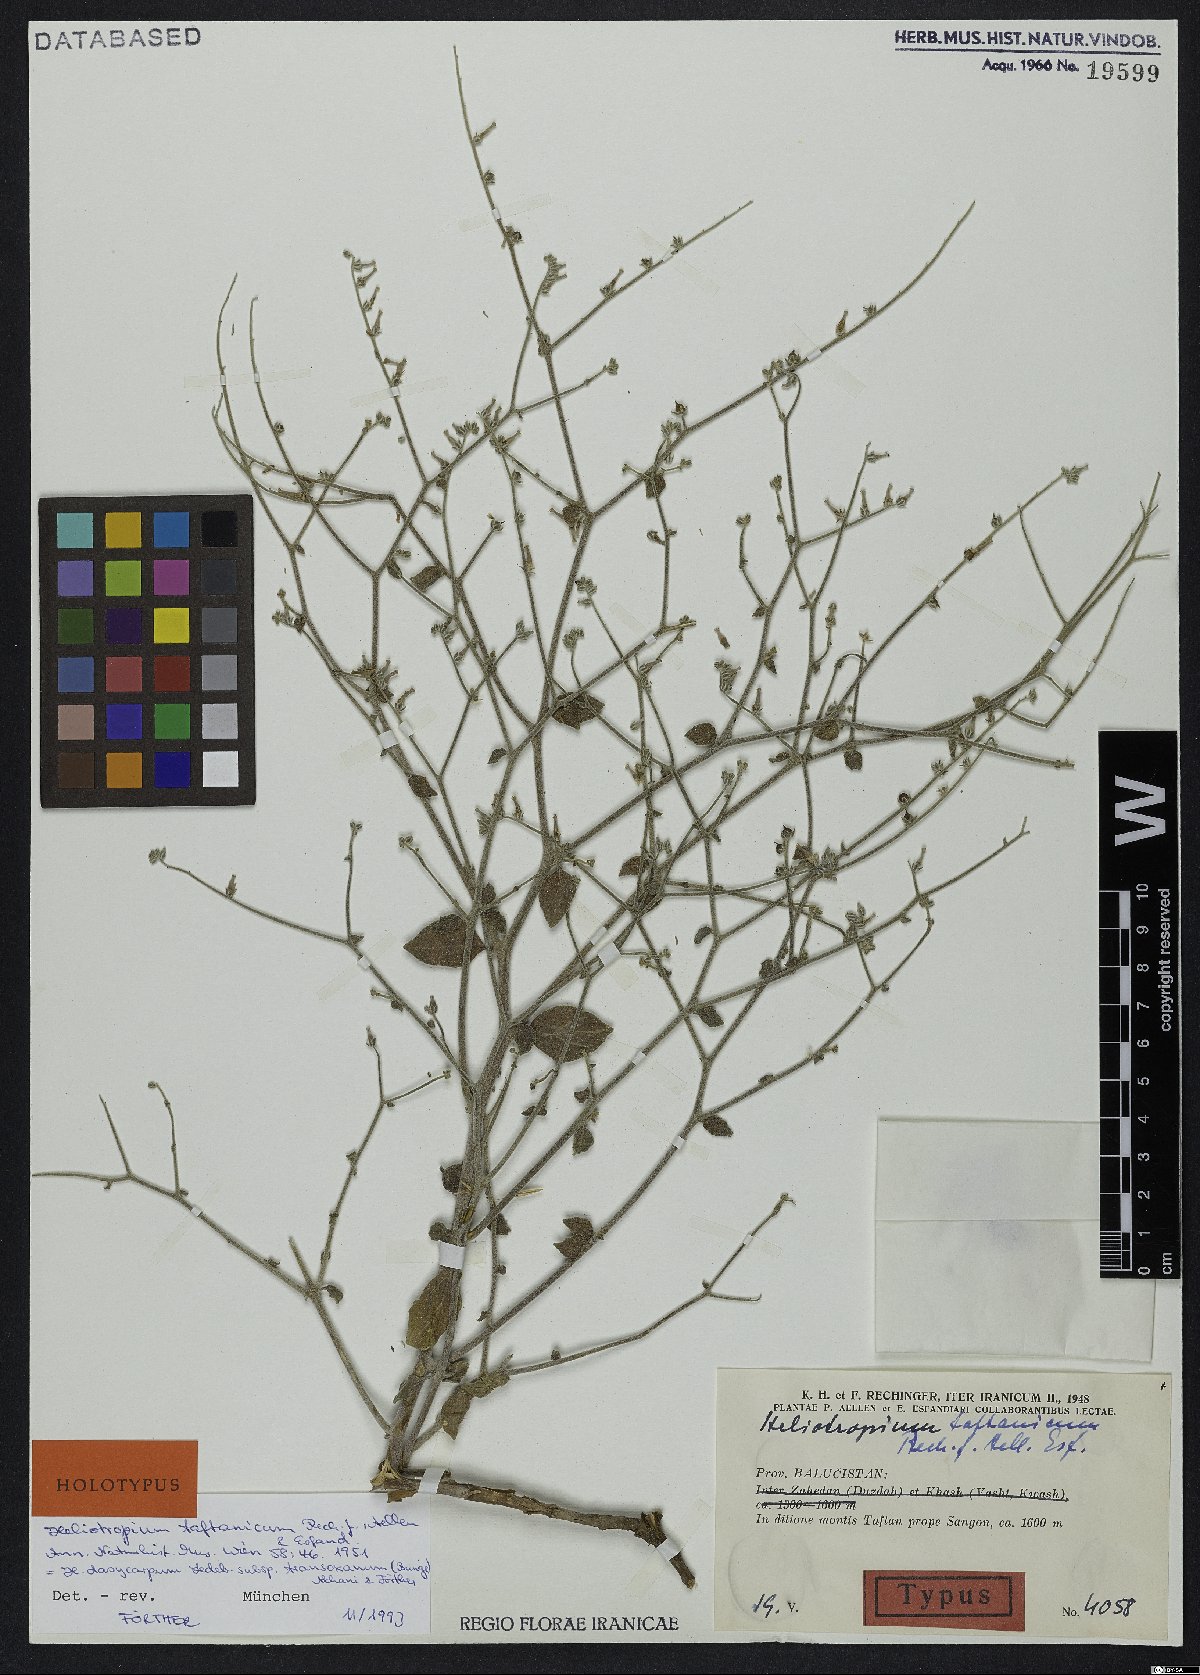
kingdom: Plantae
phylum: Tracheophyta
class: Magnoliopsida
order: Boraginales
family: Heliotropiaceae
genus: Heliotropium
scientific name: Heliotropium dasycarpum
